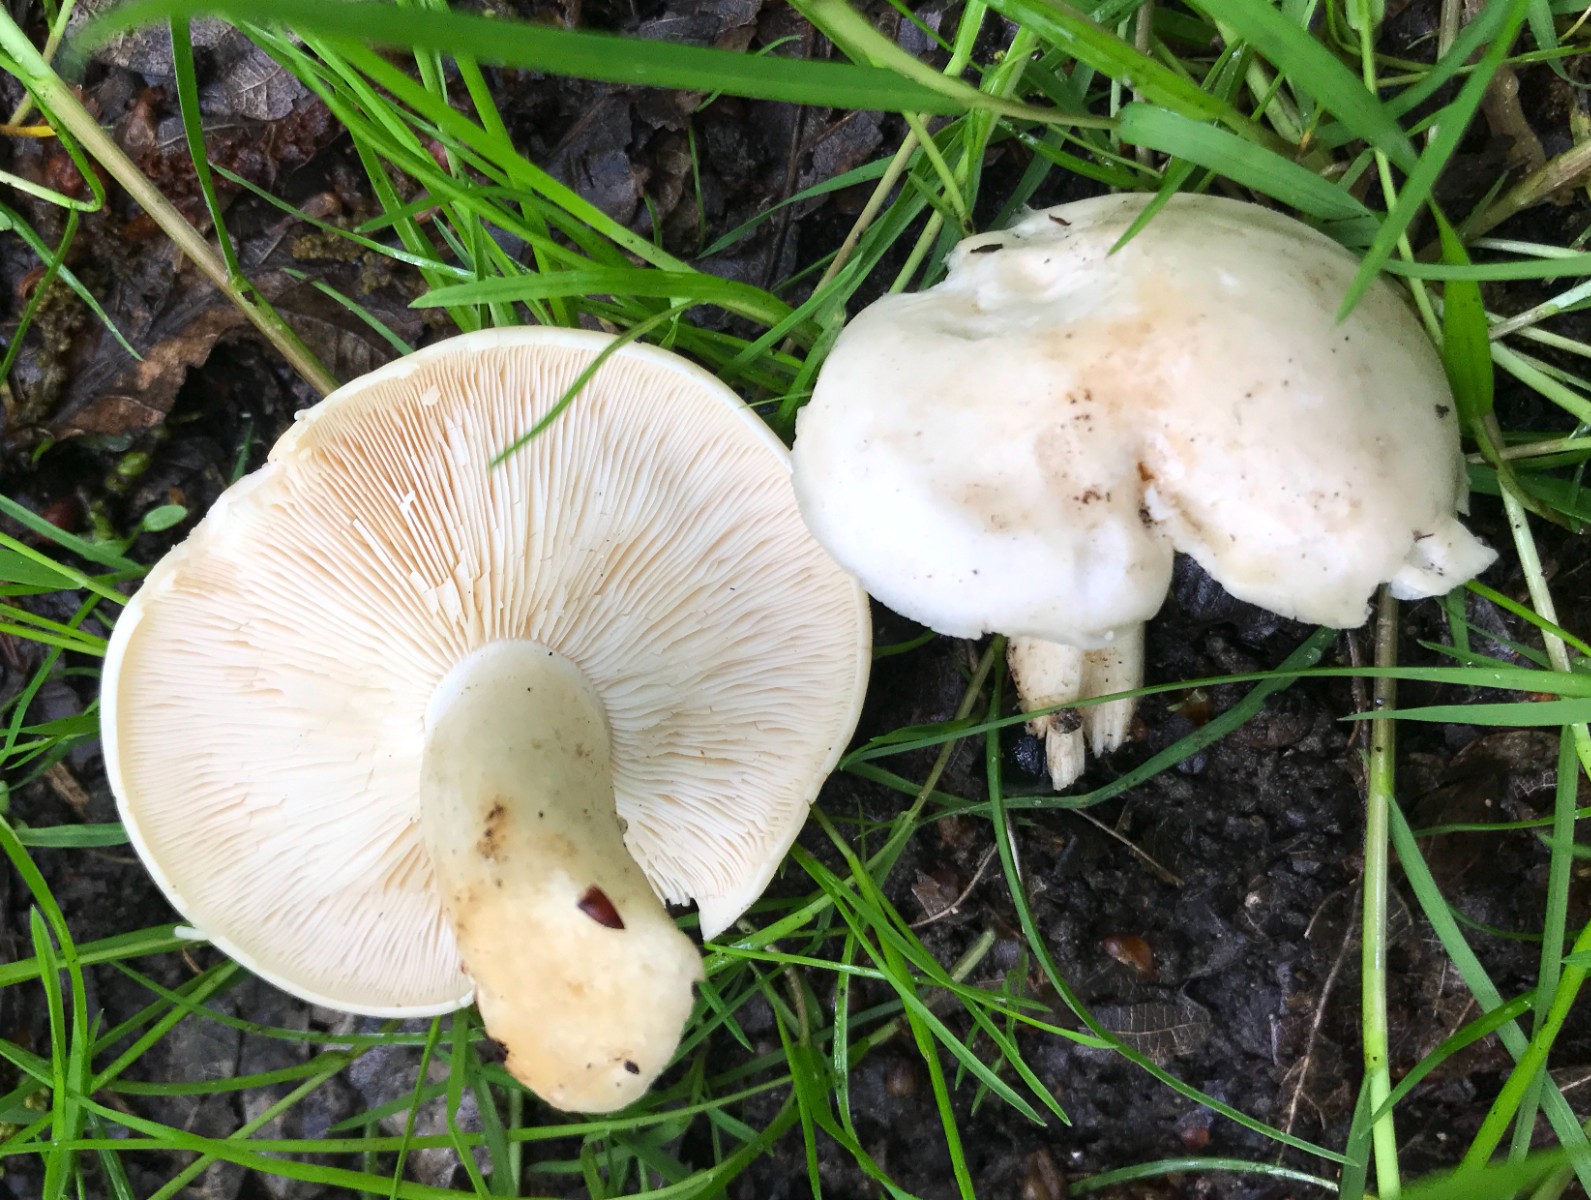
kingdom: Fungi
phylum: Basidiomycota
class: Agaricomycetes
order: Agaricales
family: Lyophyllaceae
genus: Calocybe
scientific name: Calocybe gambosa
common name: vårmusseron
